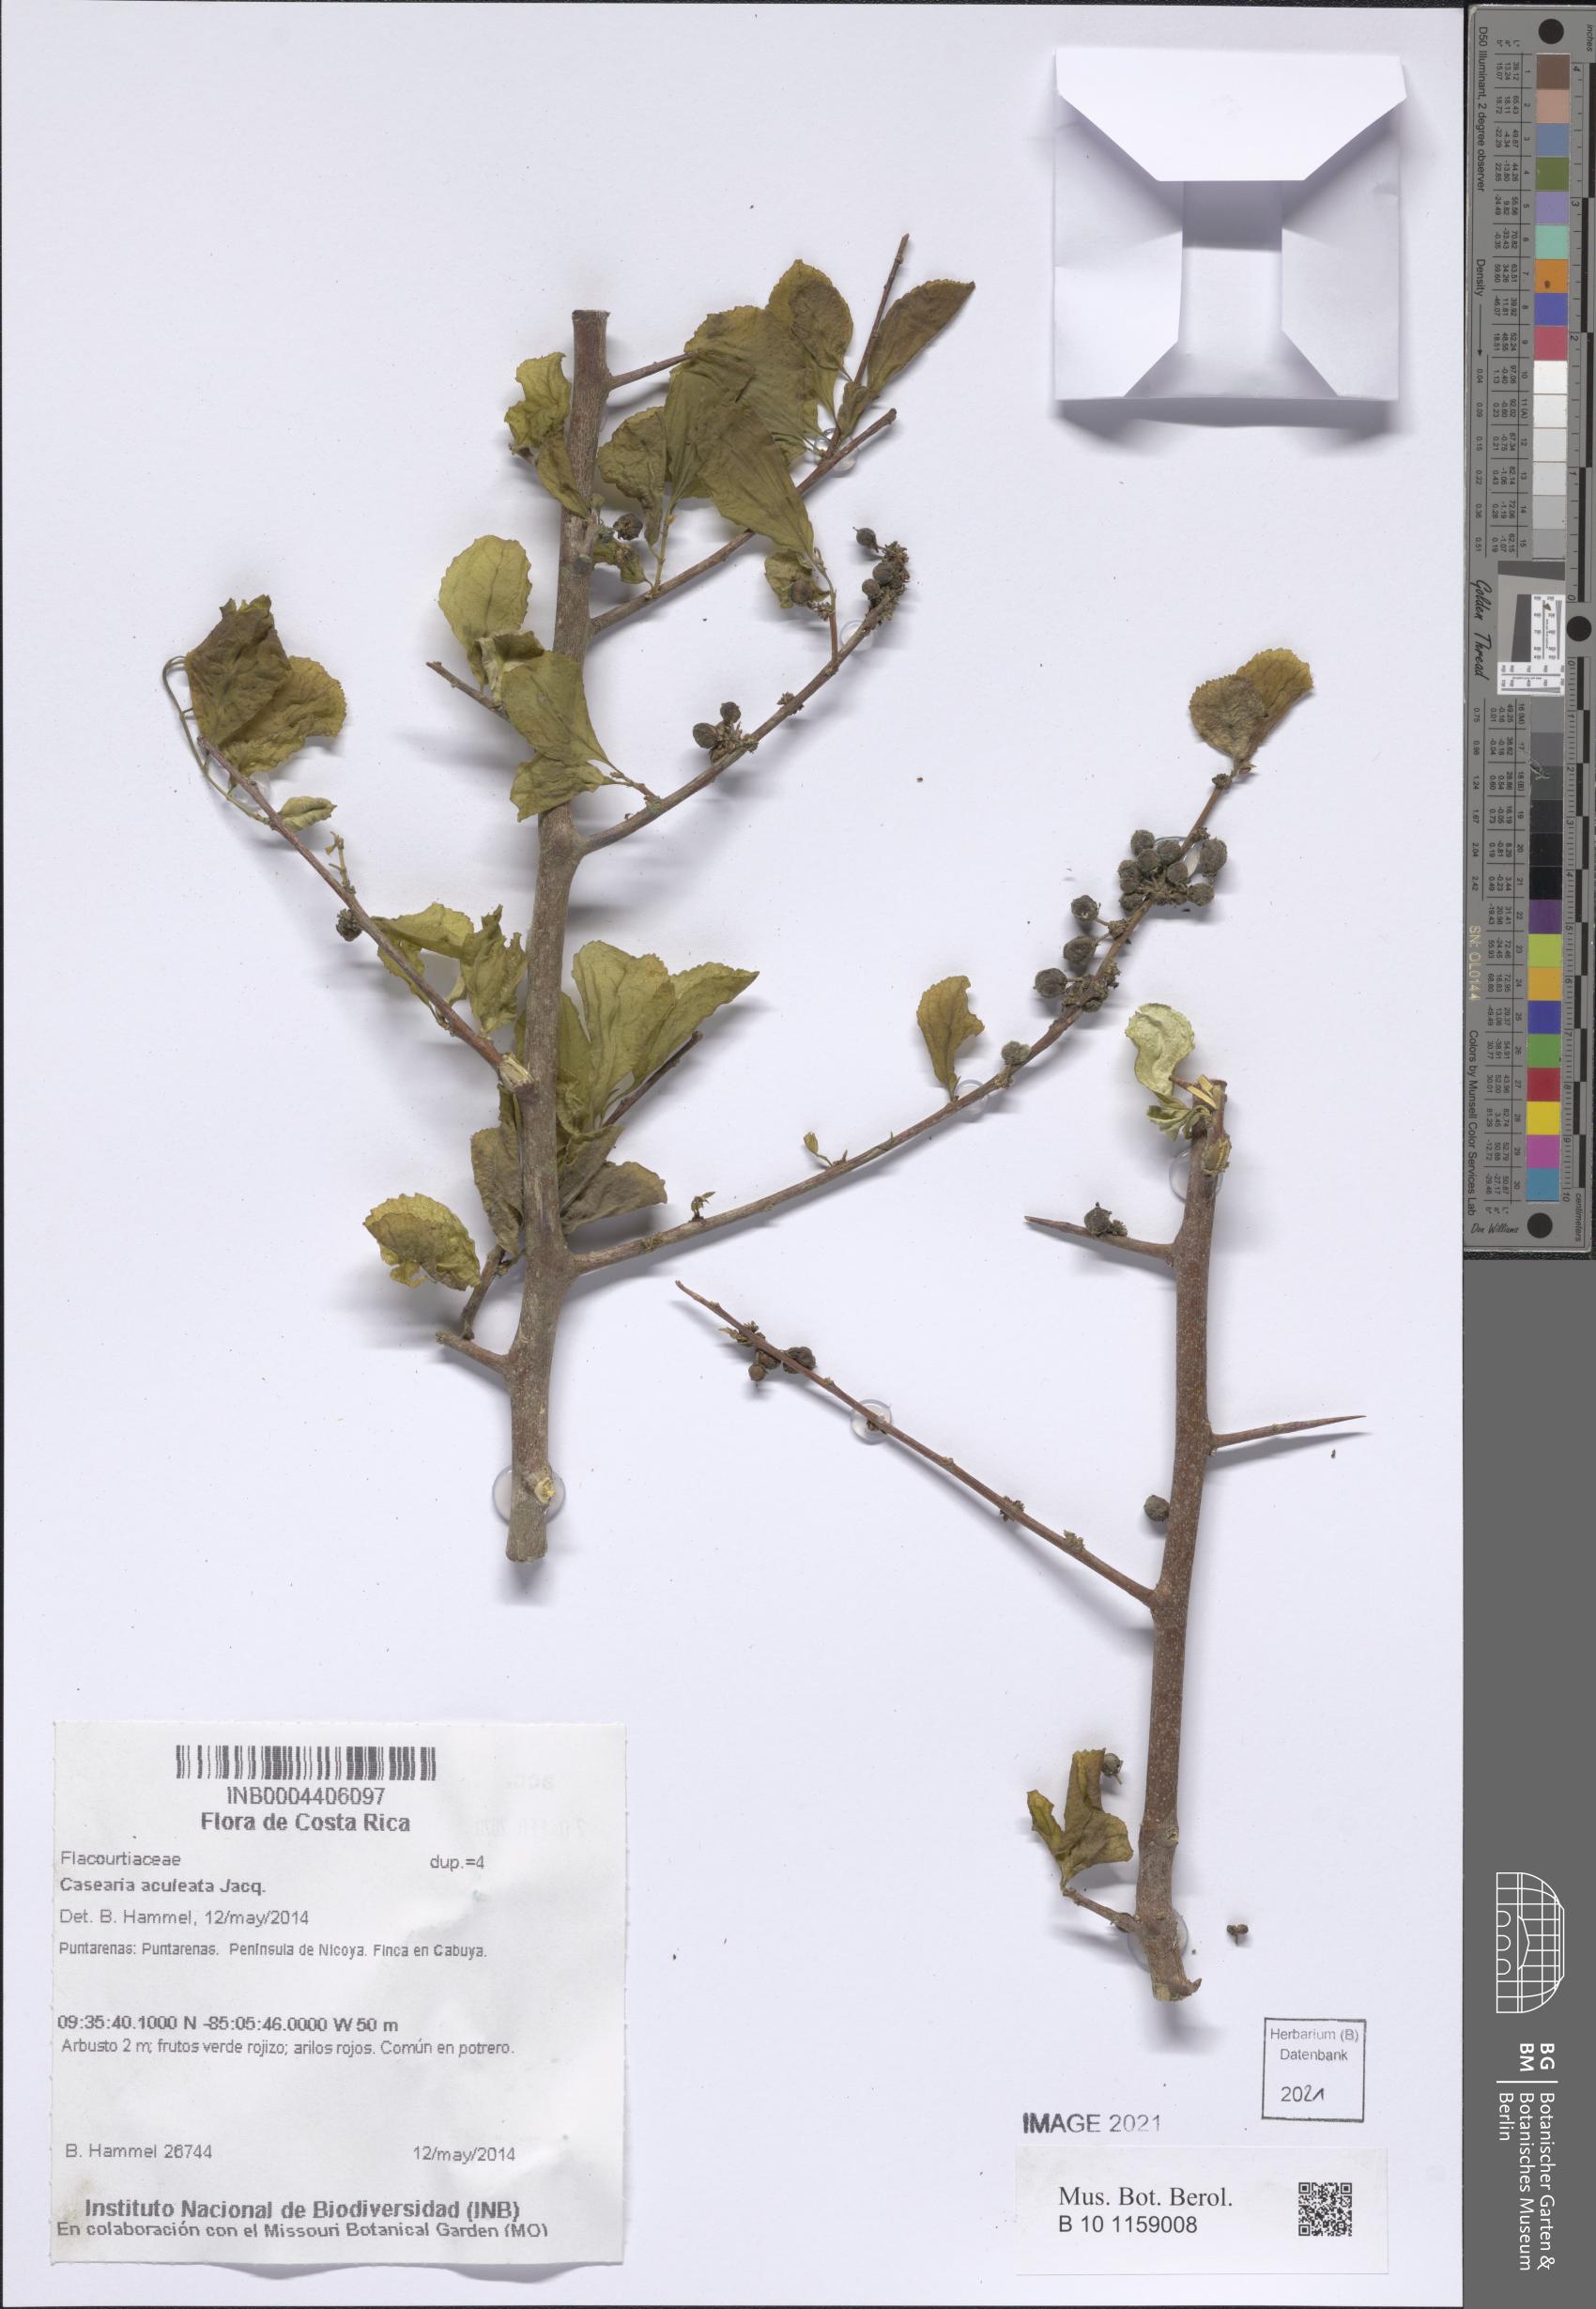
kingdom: Plantae
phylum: Tracheophyta
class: Magnoliopsida
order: Malpighiales
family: Salicaceae
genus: Casearia
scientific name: Casearia aculeata
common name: Cockspur
